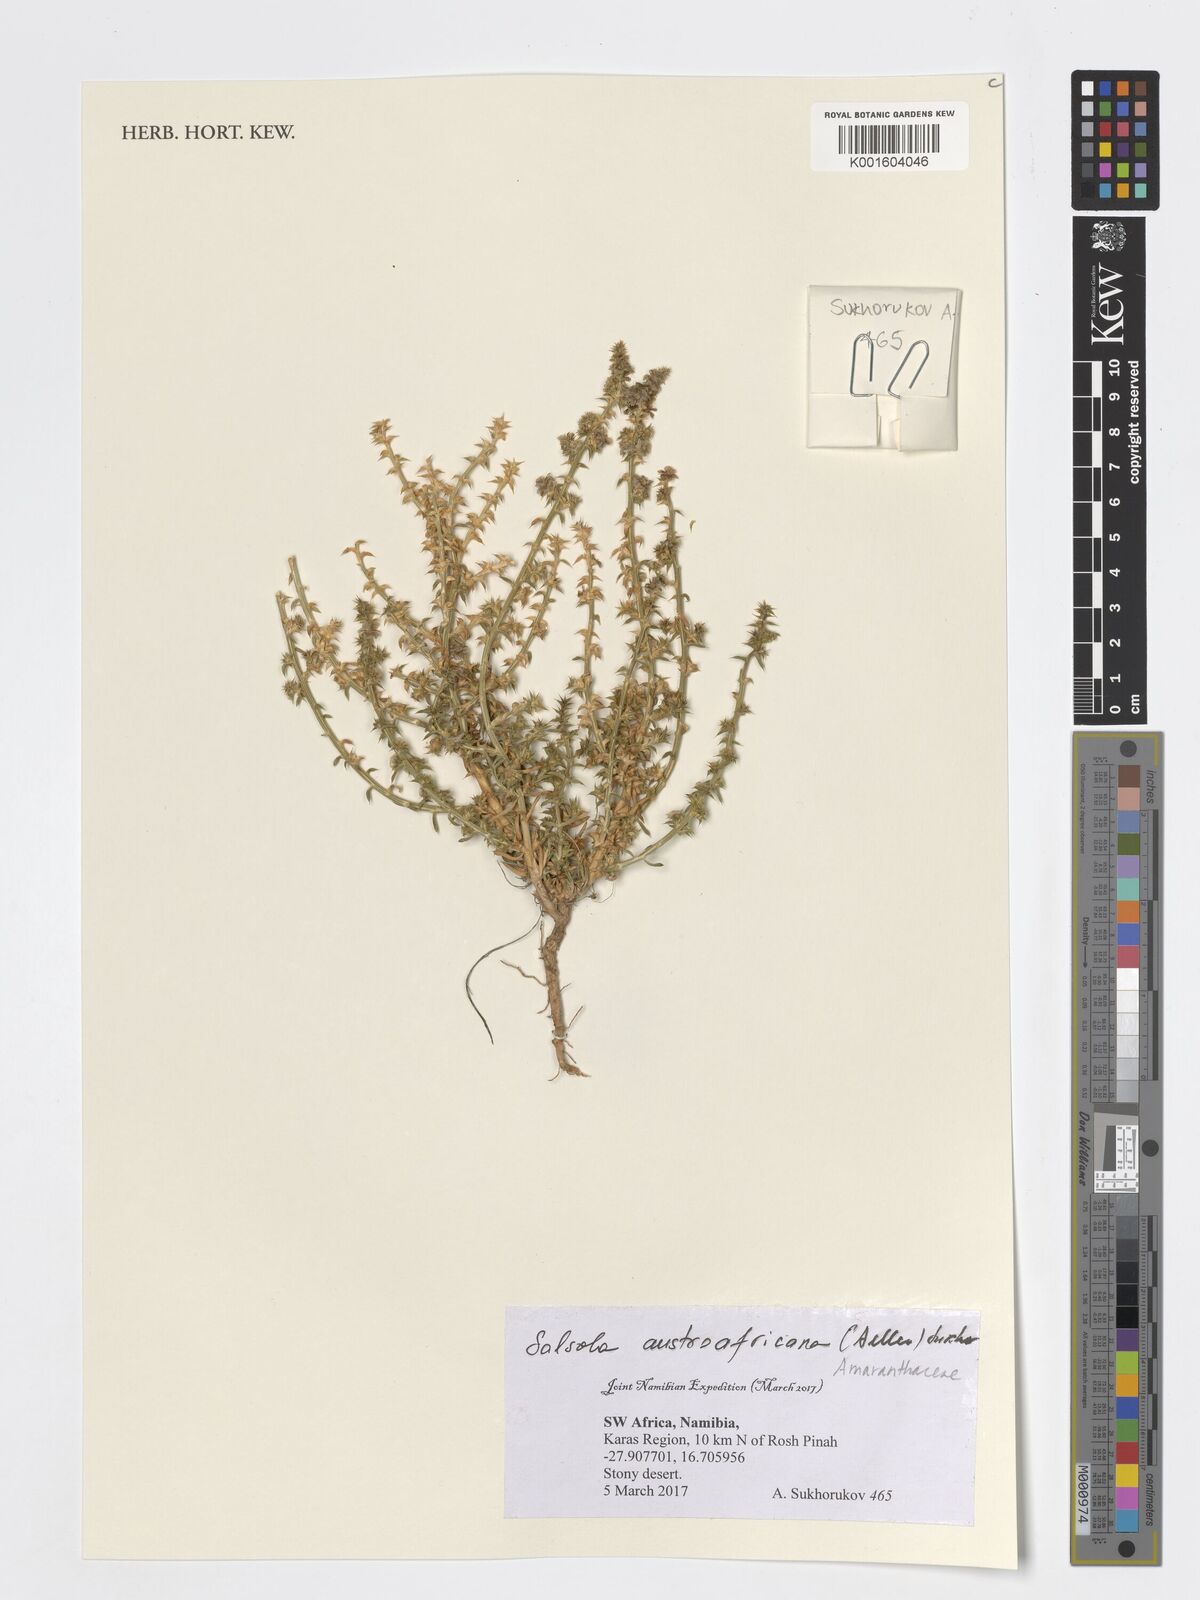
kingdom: Plantae
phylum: Tracheophyta
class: Magnoliopsida
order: Caryophyllales
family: Amaranthaceae
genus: Salsola
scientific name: Salsola
